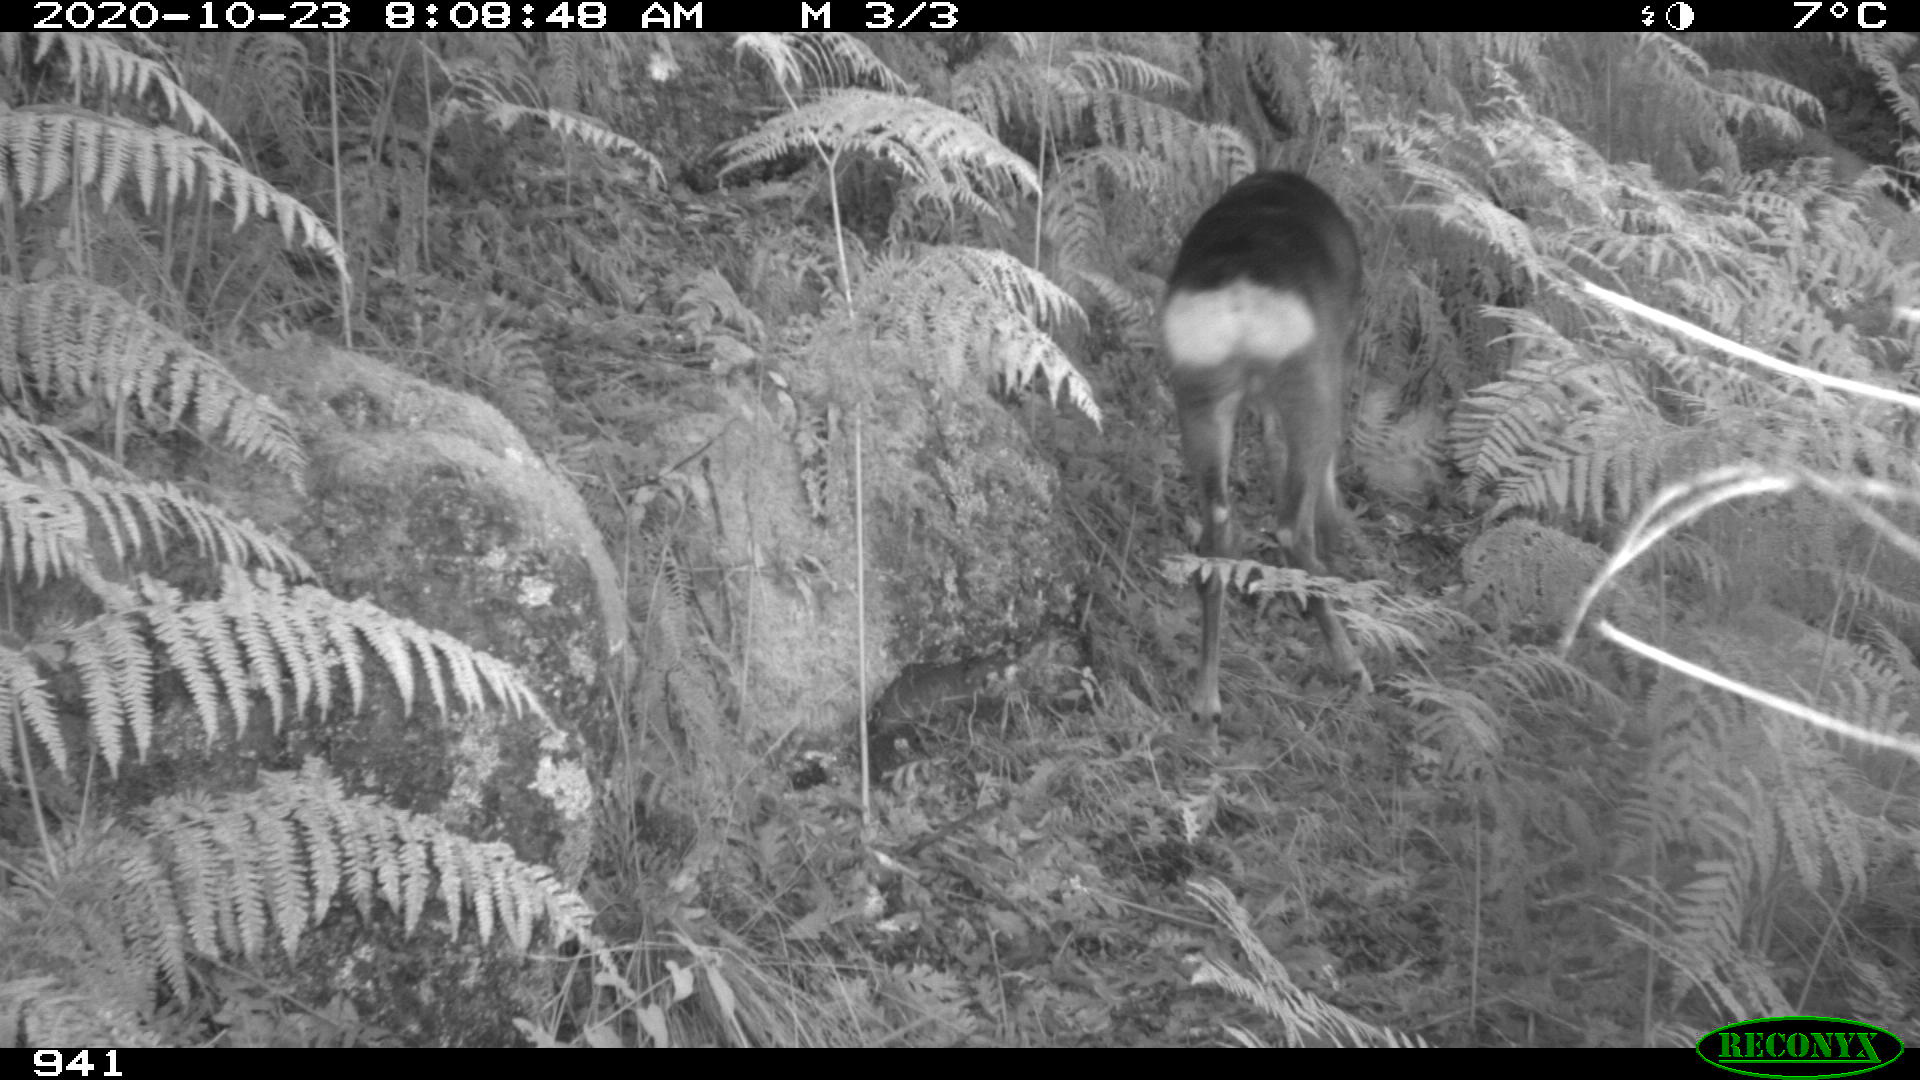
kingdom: Animalia
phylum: Chordata
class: Mammalia
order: Artiodactyla
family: Cervidae
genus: Capreolus
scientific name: Capreolus capreolus
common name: Western roe deer
